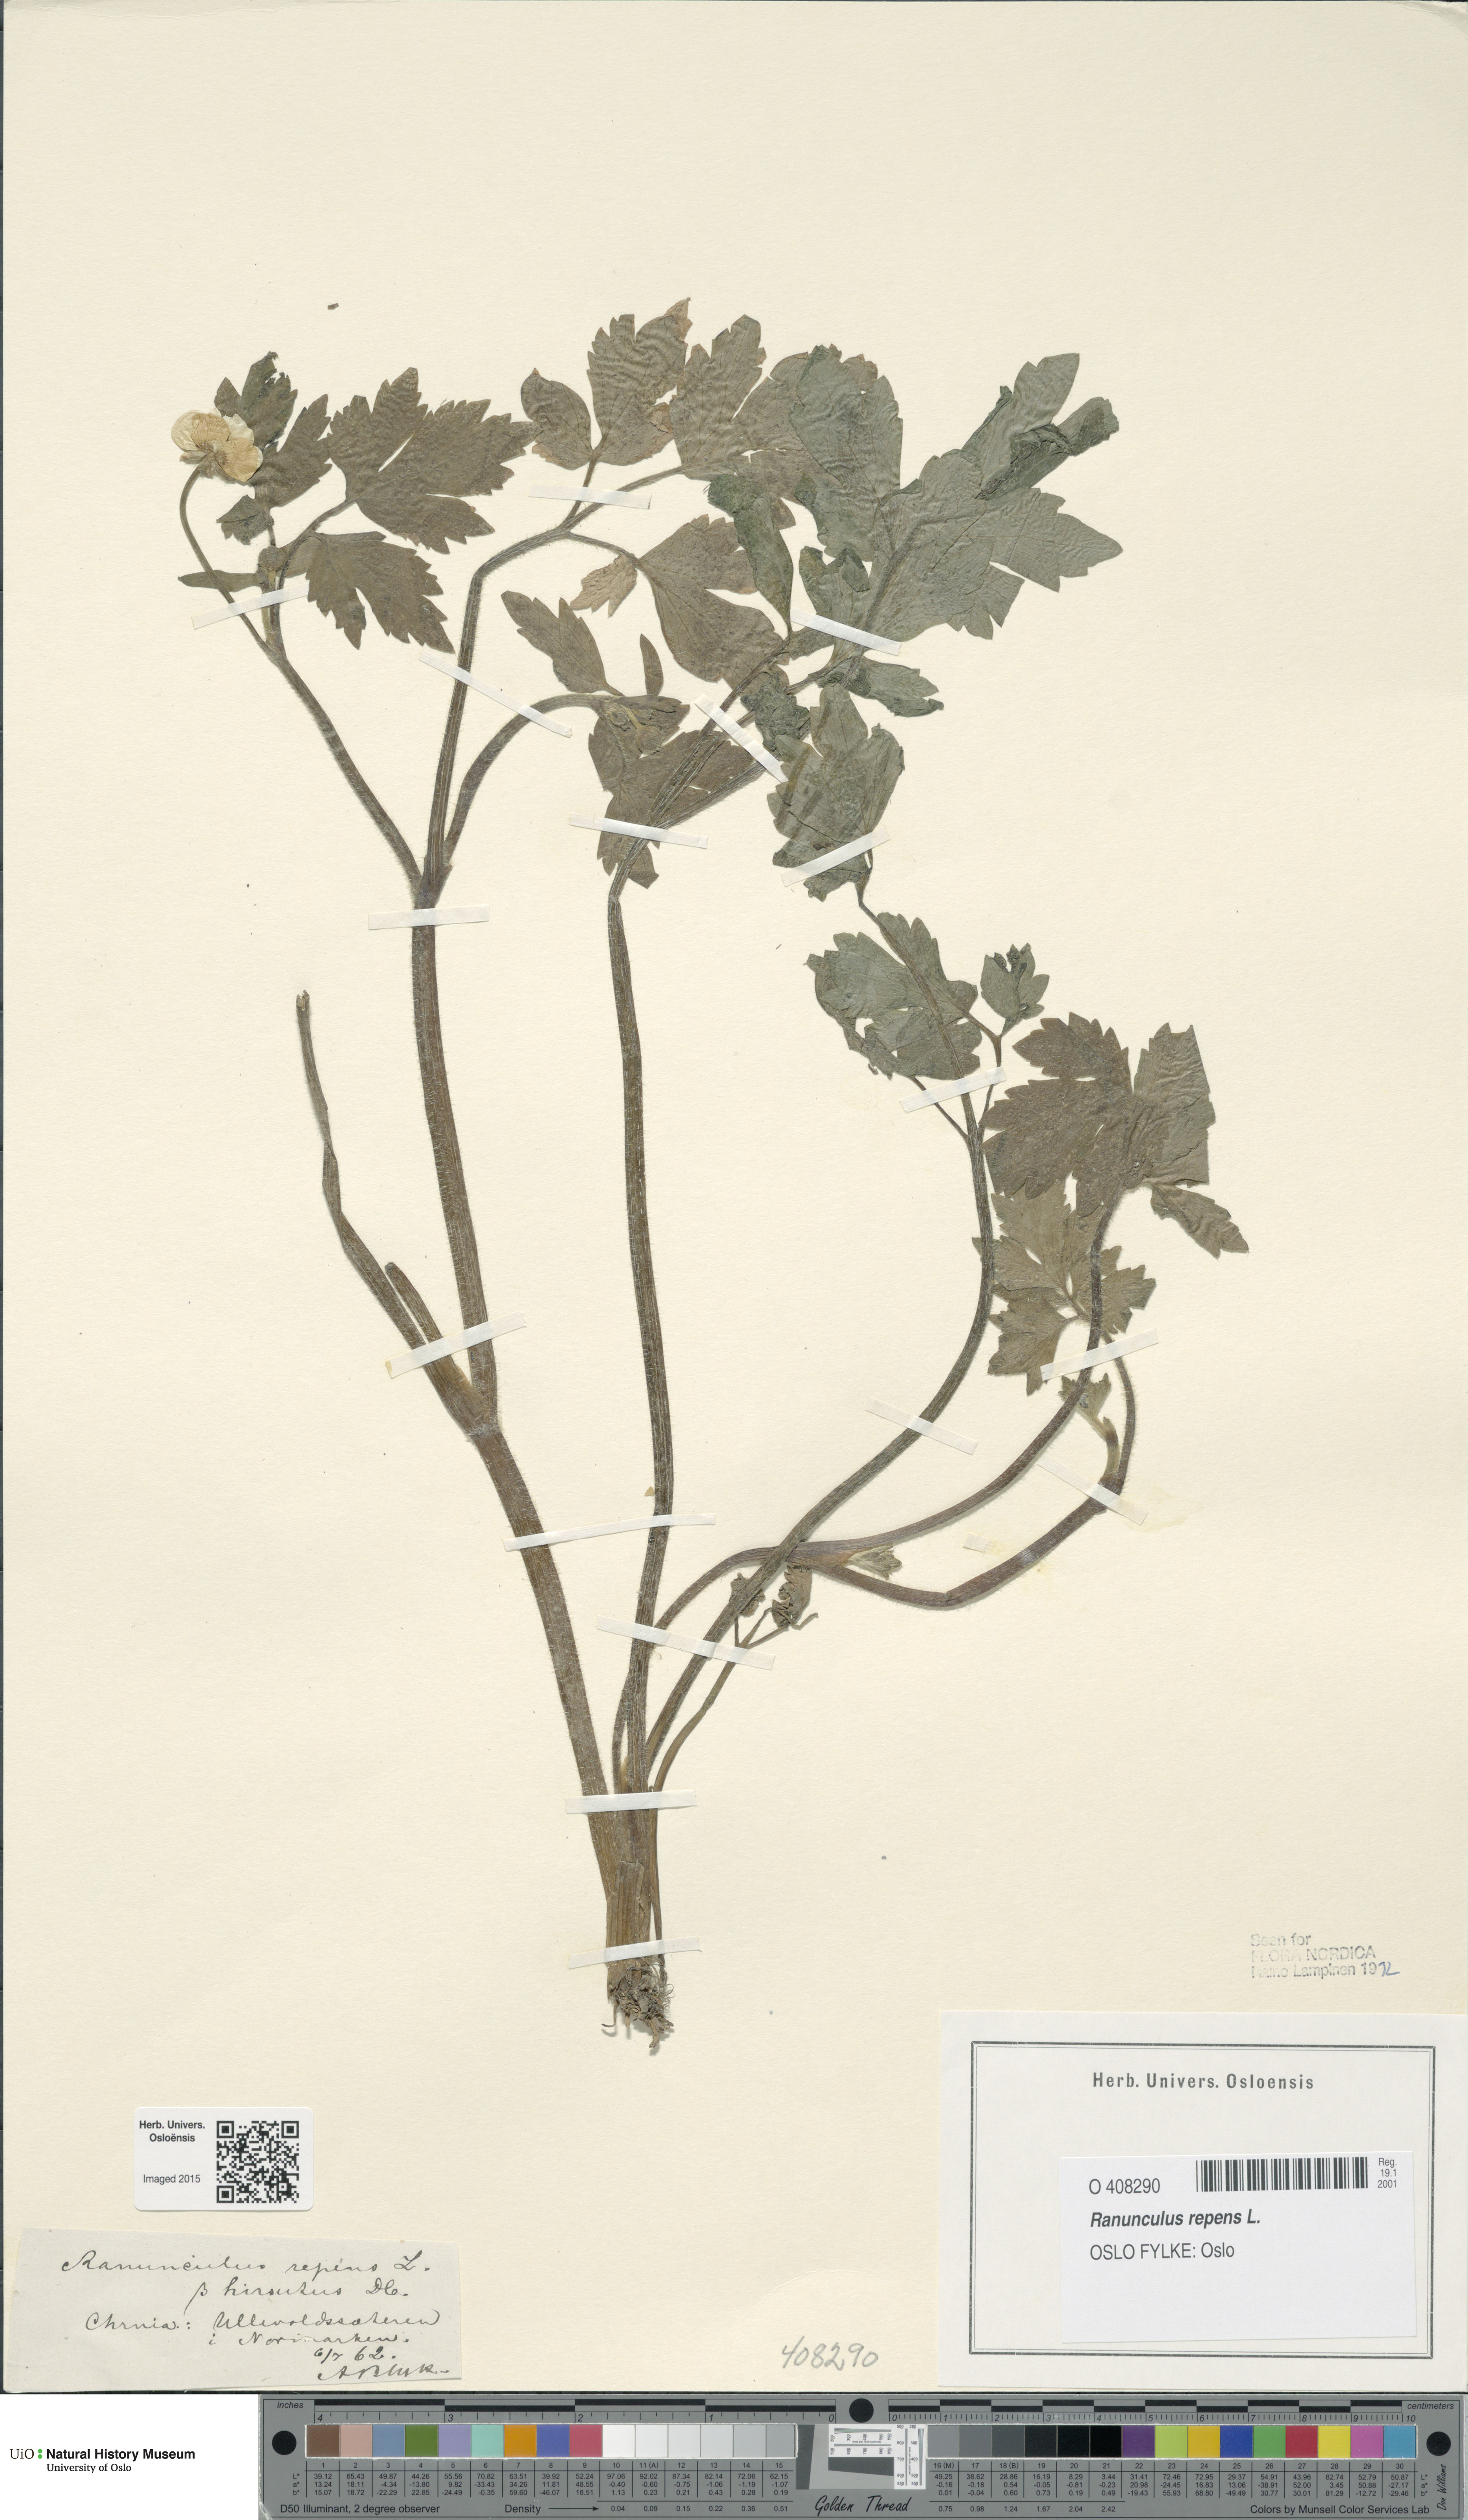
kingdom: Plantae
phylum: Tracheophyta
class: Magnoliopsida
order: Ranunculales
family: Ranunculaceae
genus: Ranunculus
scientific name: Ranunculus repens
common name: Creeping buttercup
